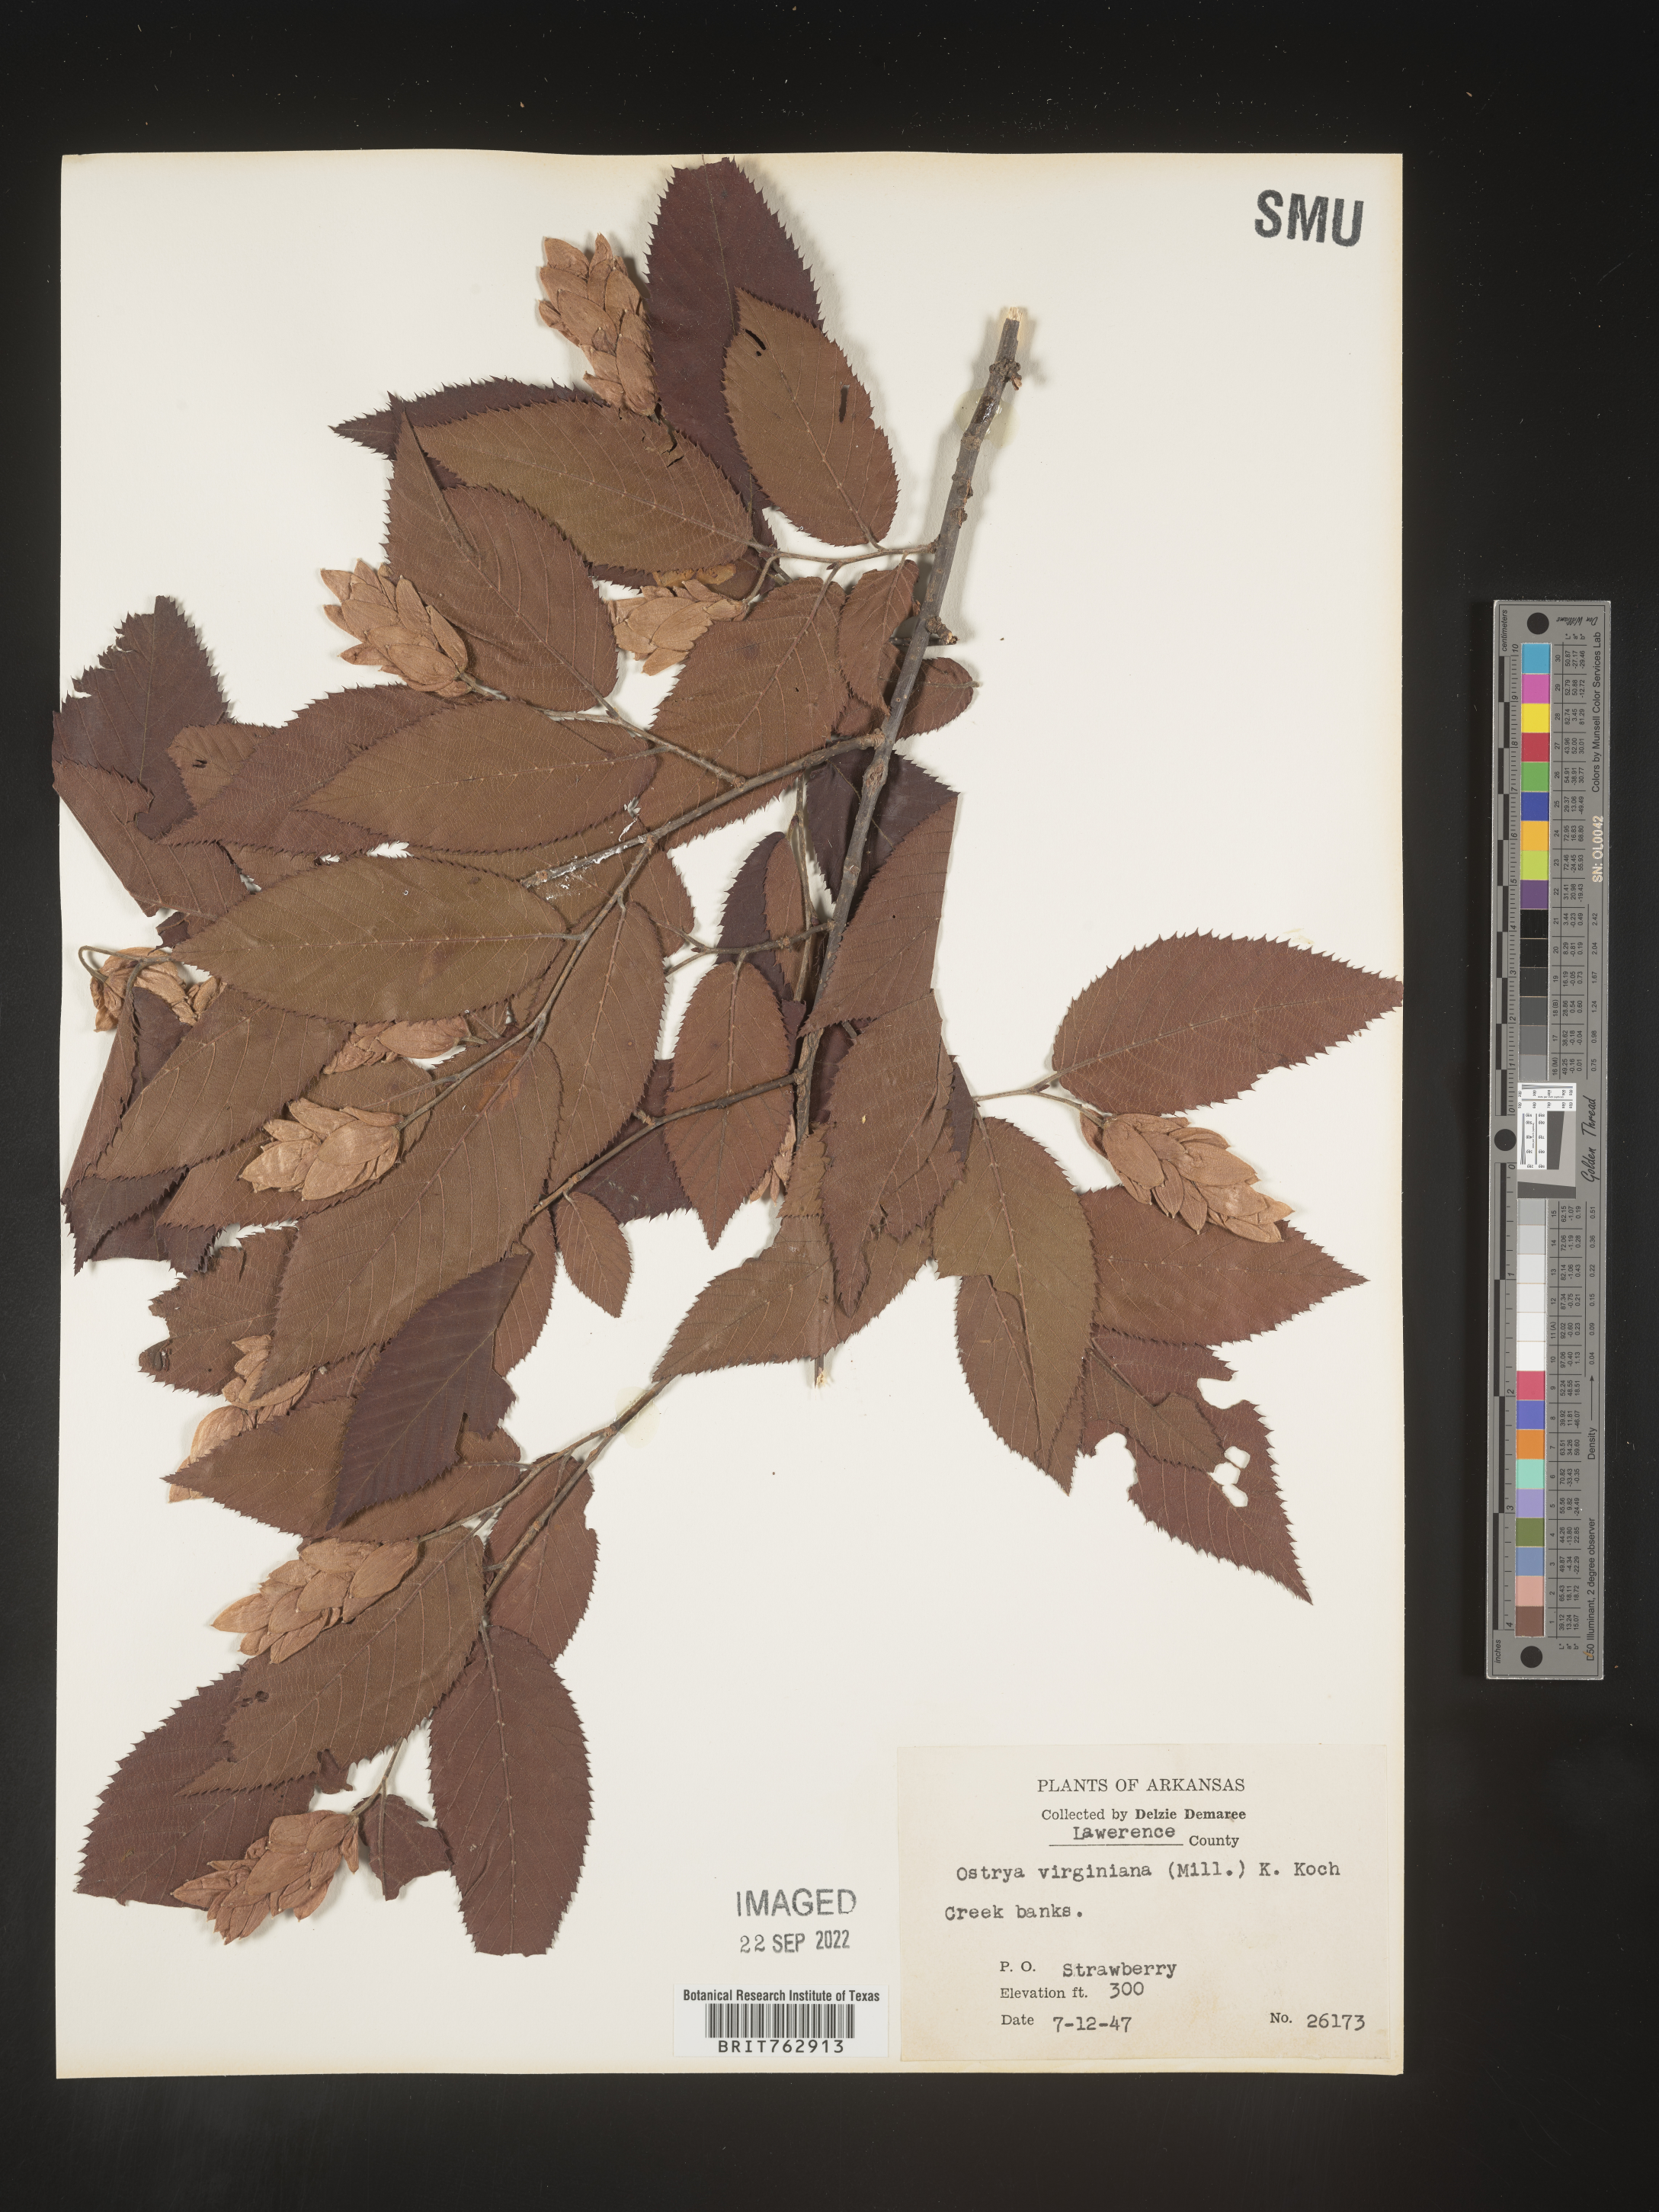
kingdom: Plantae
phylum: Tracheophyta
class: Magnoliopsida
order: Fagales
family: Betulaceae
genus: Ostrya
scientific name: Ostrya virginiana
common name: Ironwood
